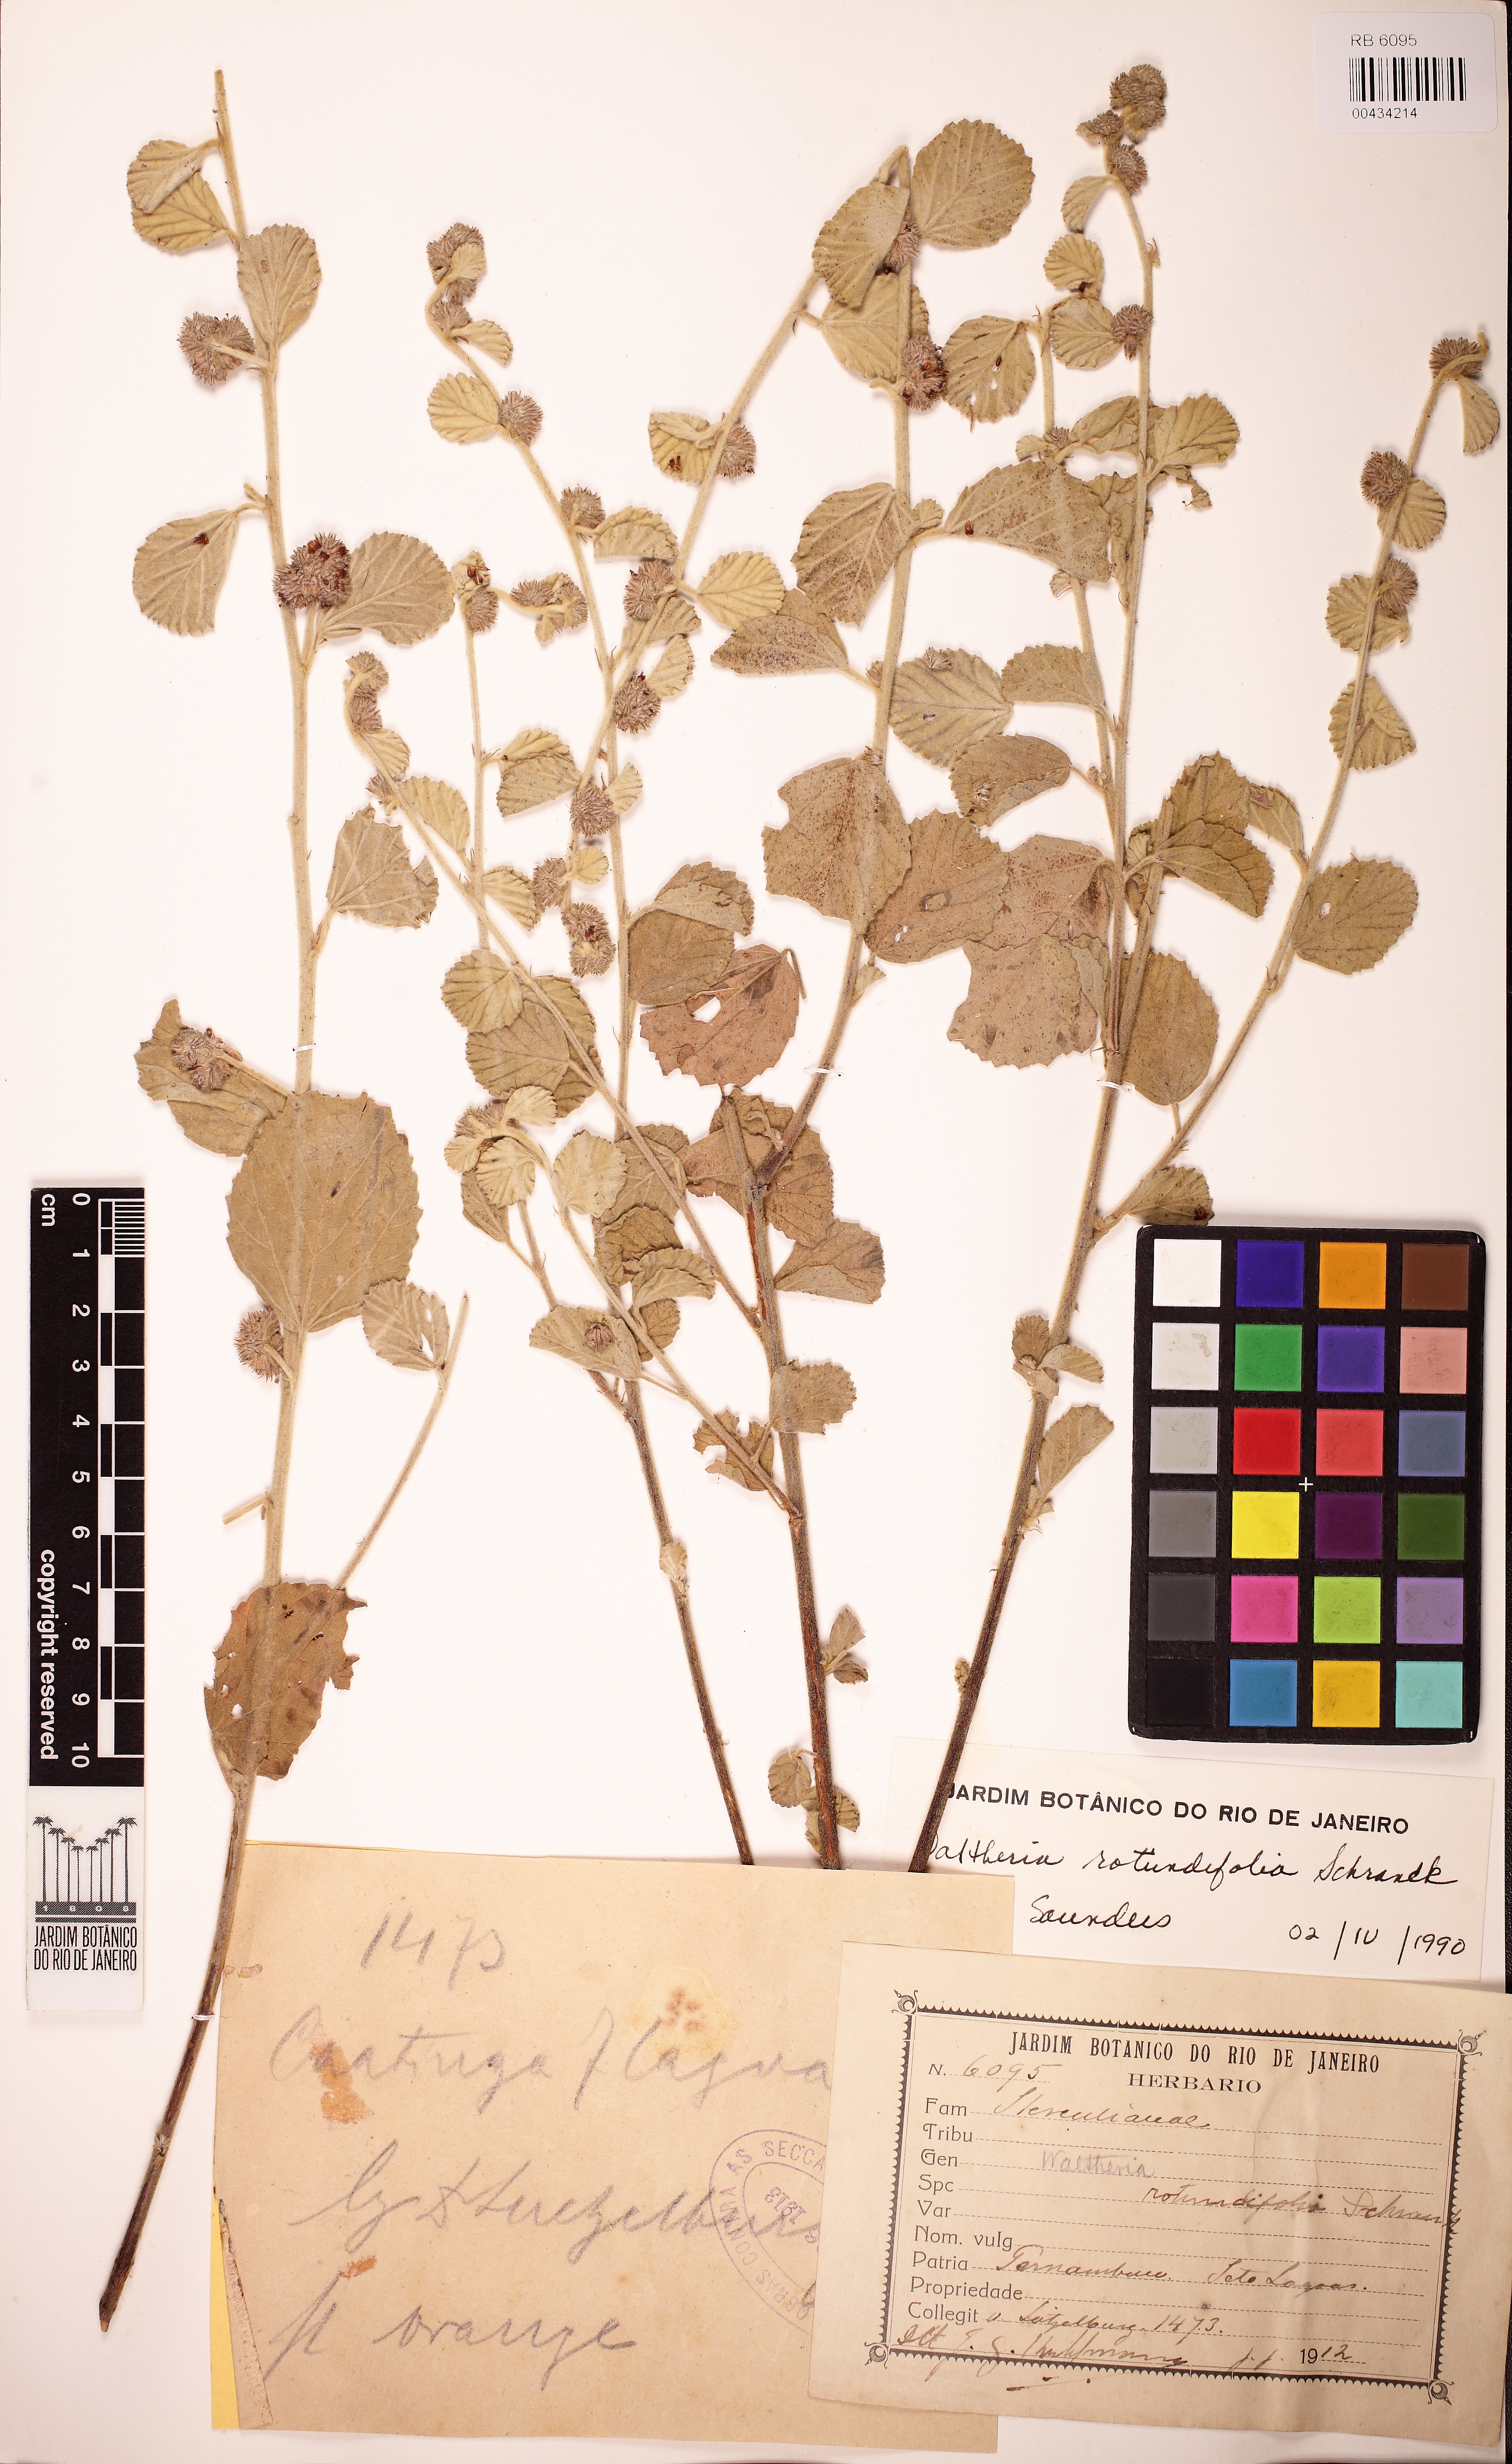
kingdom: Plantae
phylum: Tracheophyta
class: Magnoliopsida
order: Malvales
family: Malvaceae
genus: Waltheria
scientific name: Waltheria rotundifolia
